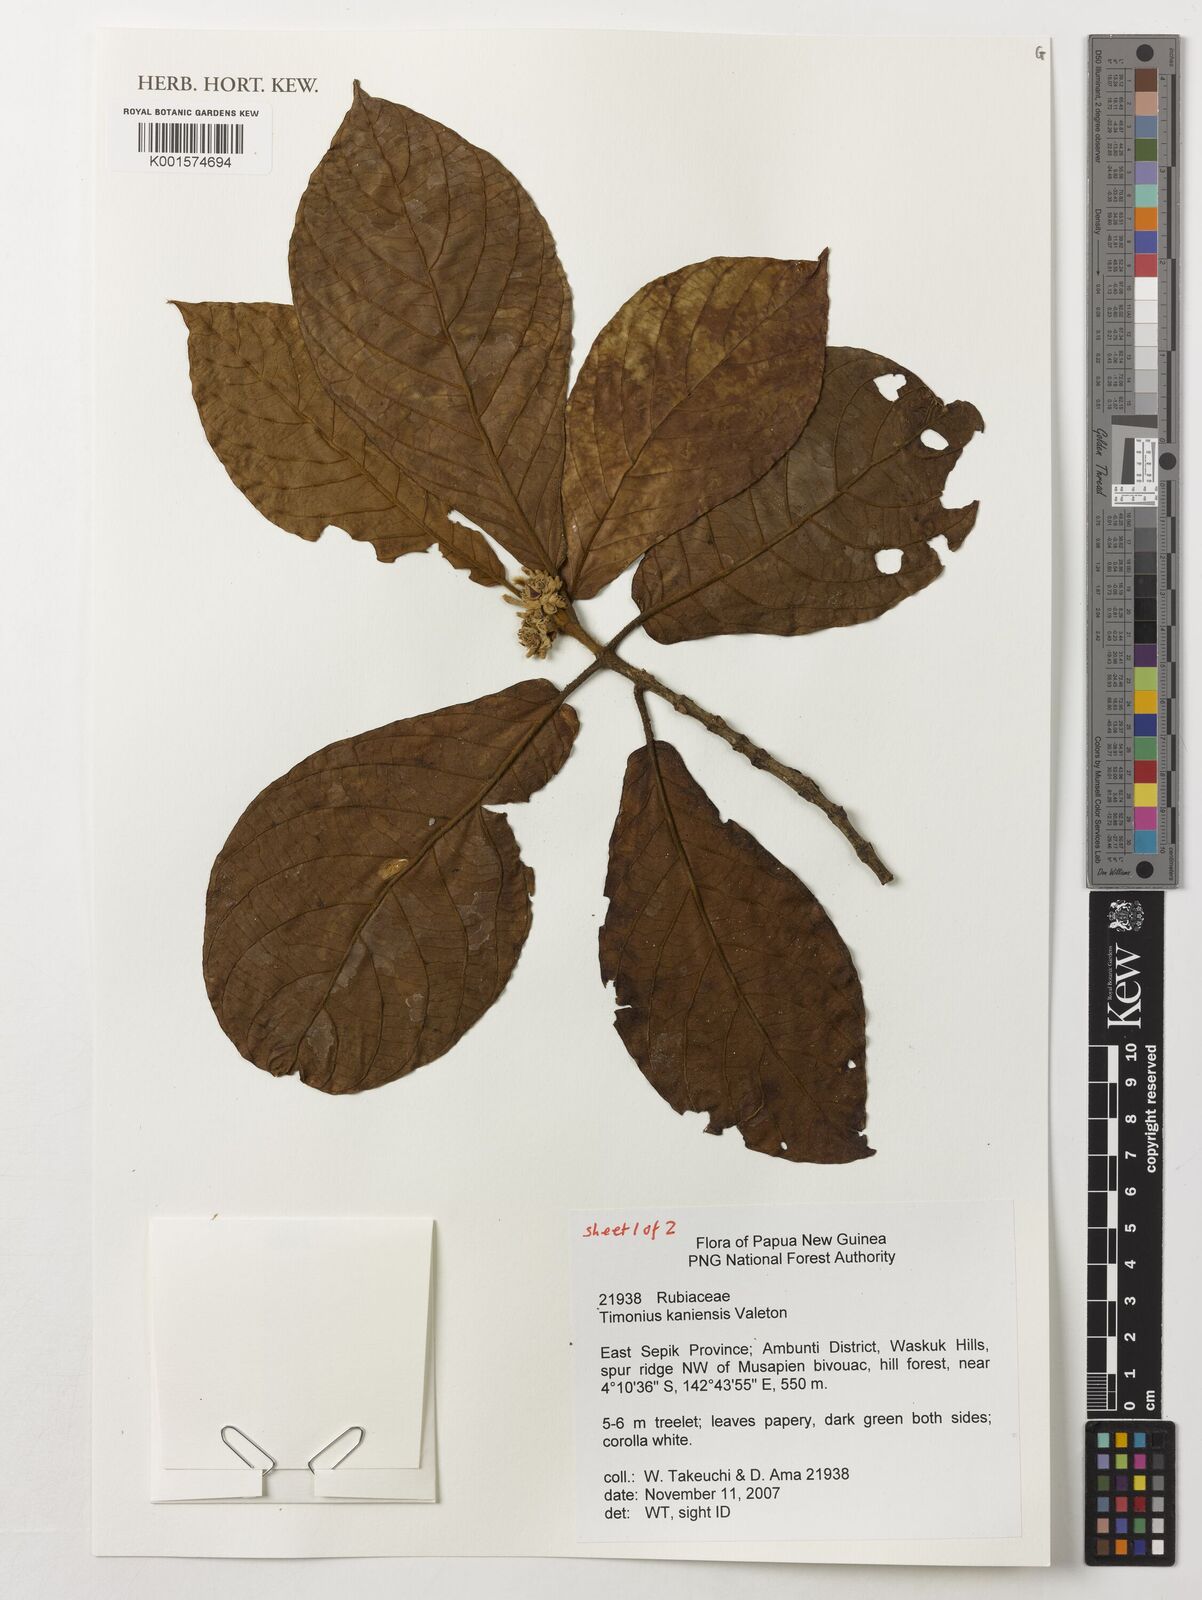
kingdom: Plantae
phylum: Tracheophyta
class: Magnoliopsida
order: Gentianales
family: Rubiaceae
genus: Timonius
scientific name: Timonius kaniensis
